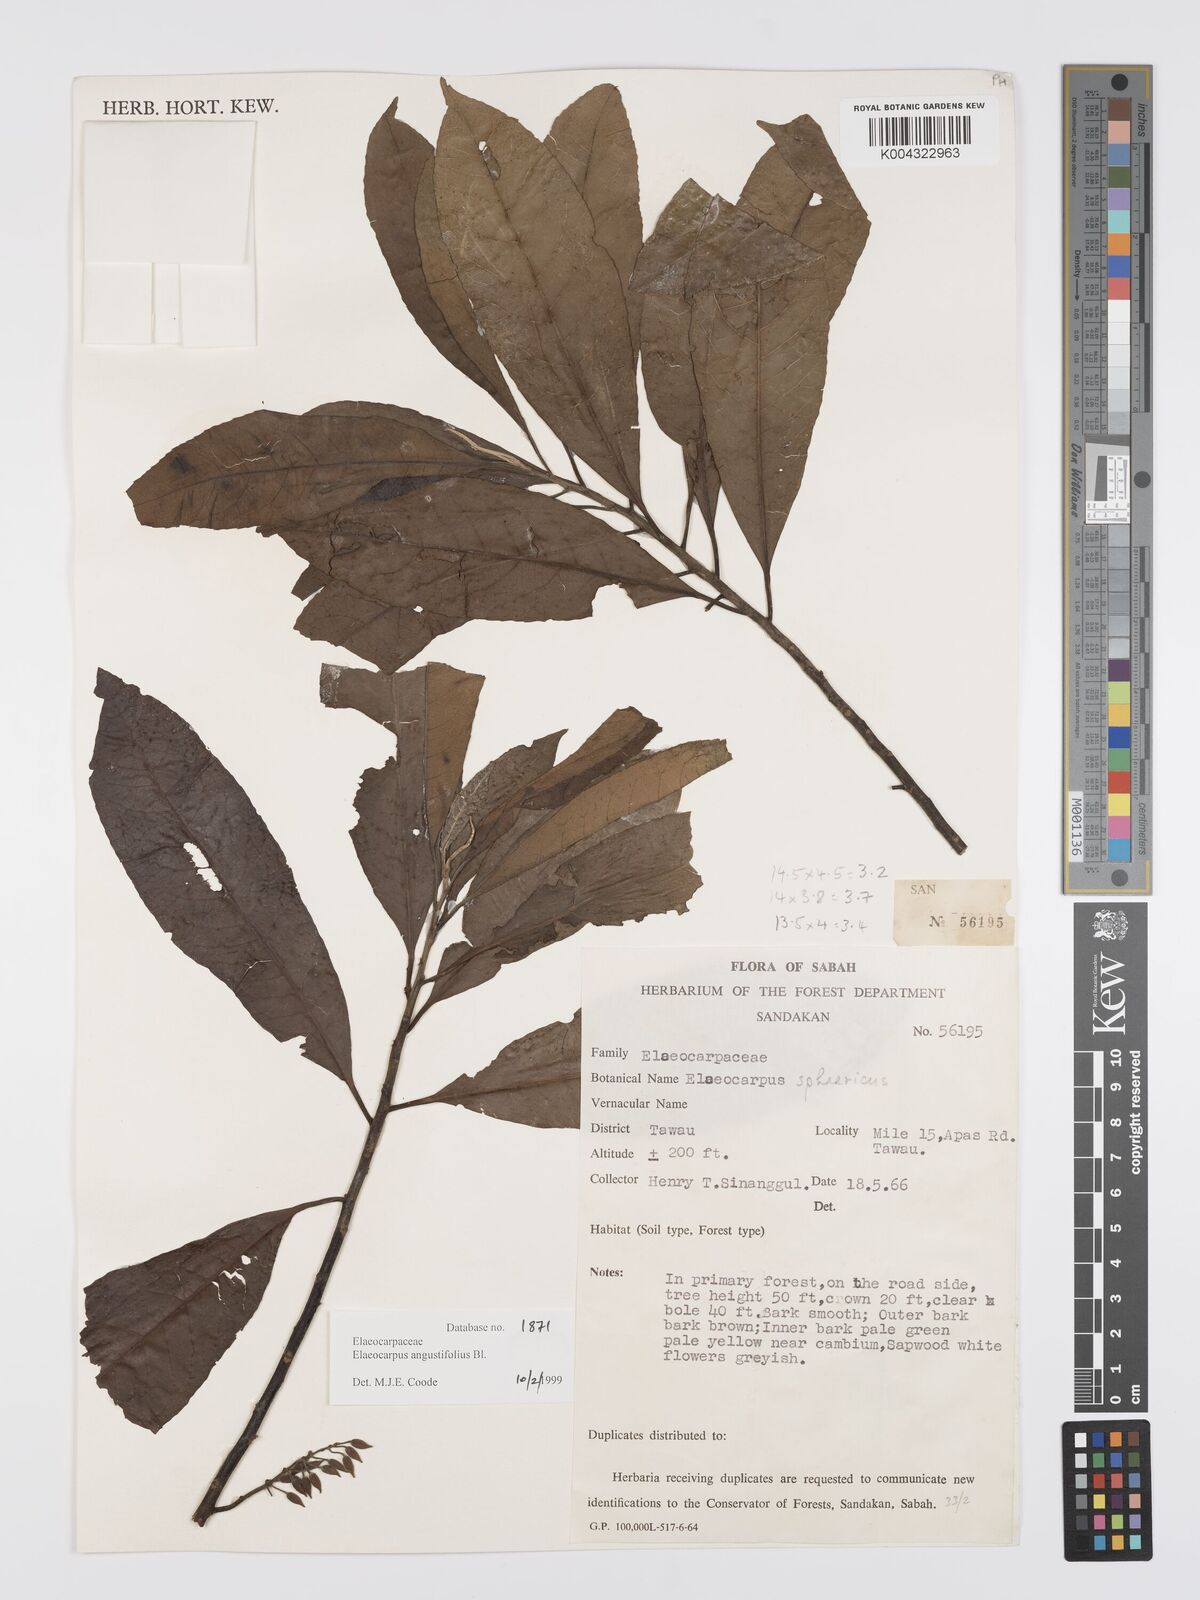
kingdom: Plantae
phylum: Tracheophyta
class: Magnoliopsida
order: Oxalidales
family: Elaeocarpaceae
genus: Elaeocarpus
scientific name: Elaeocarpus
